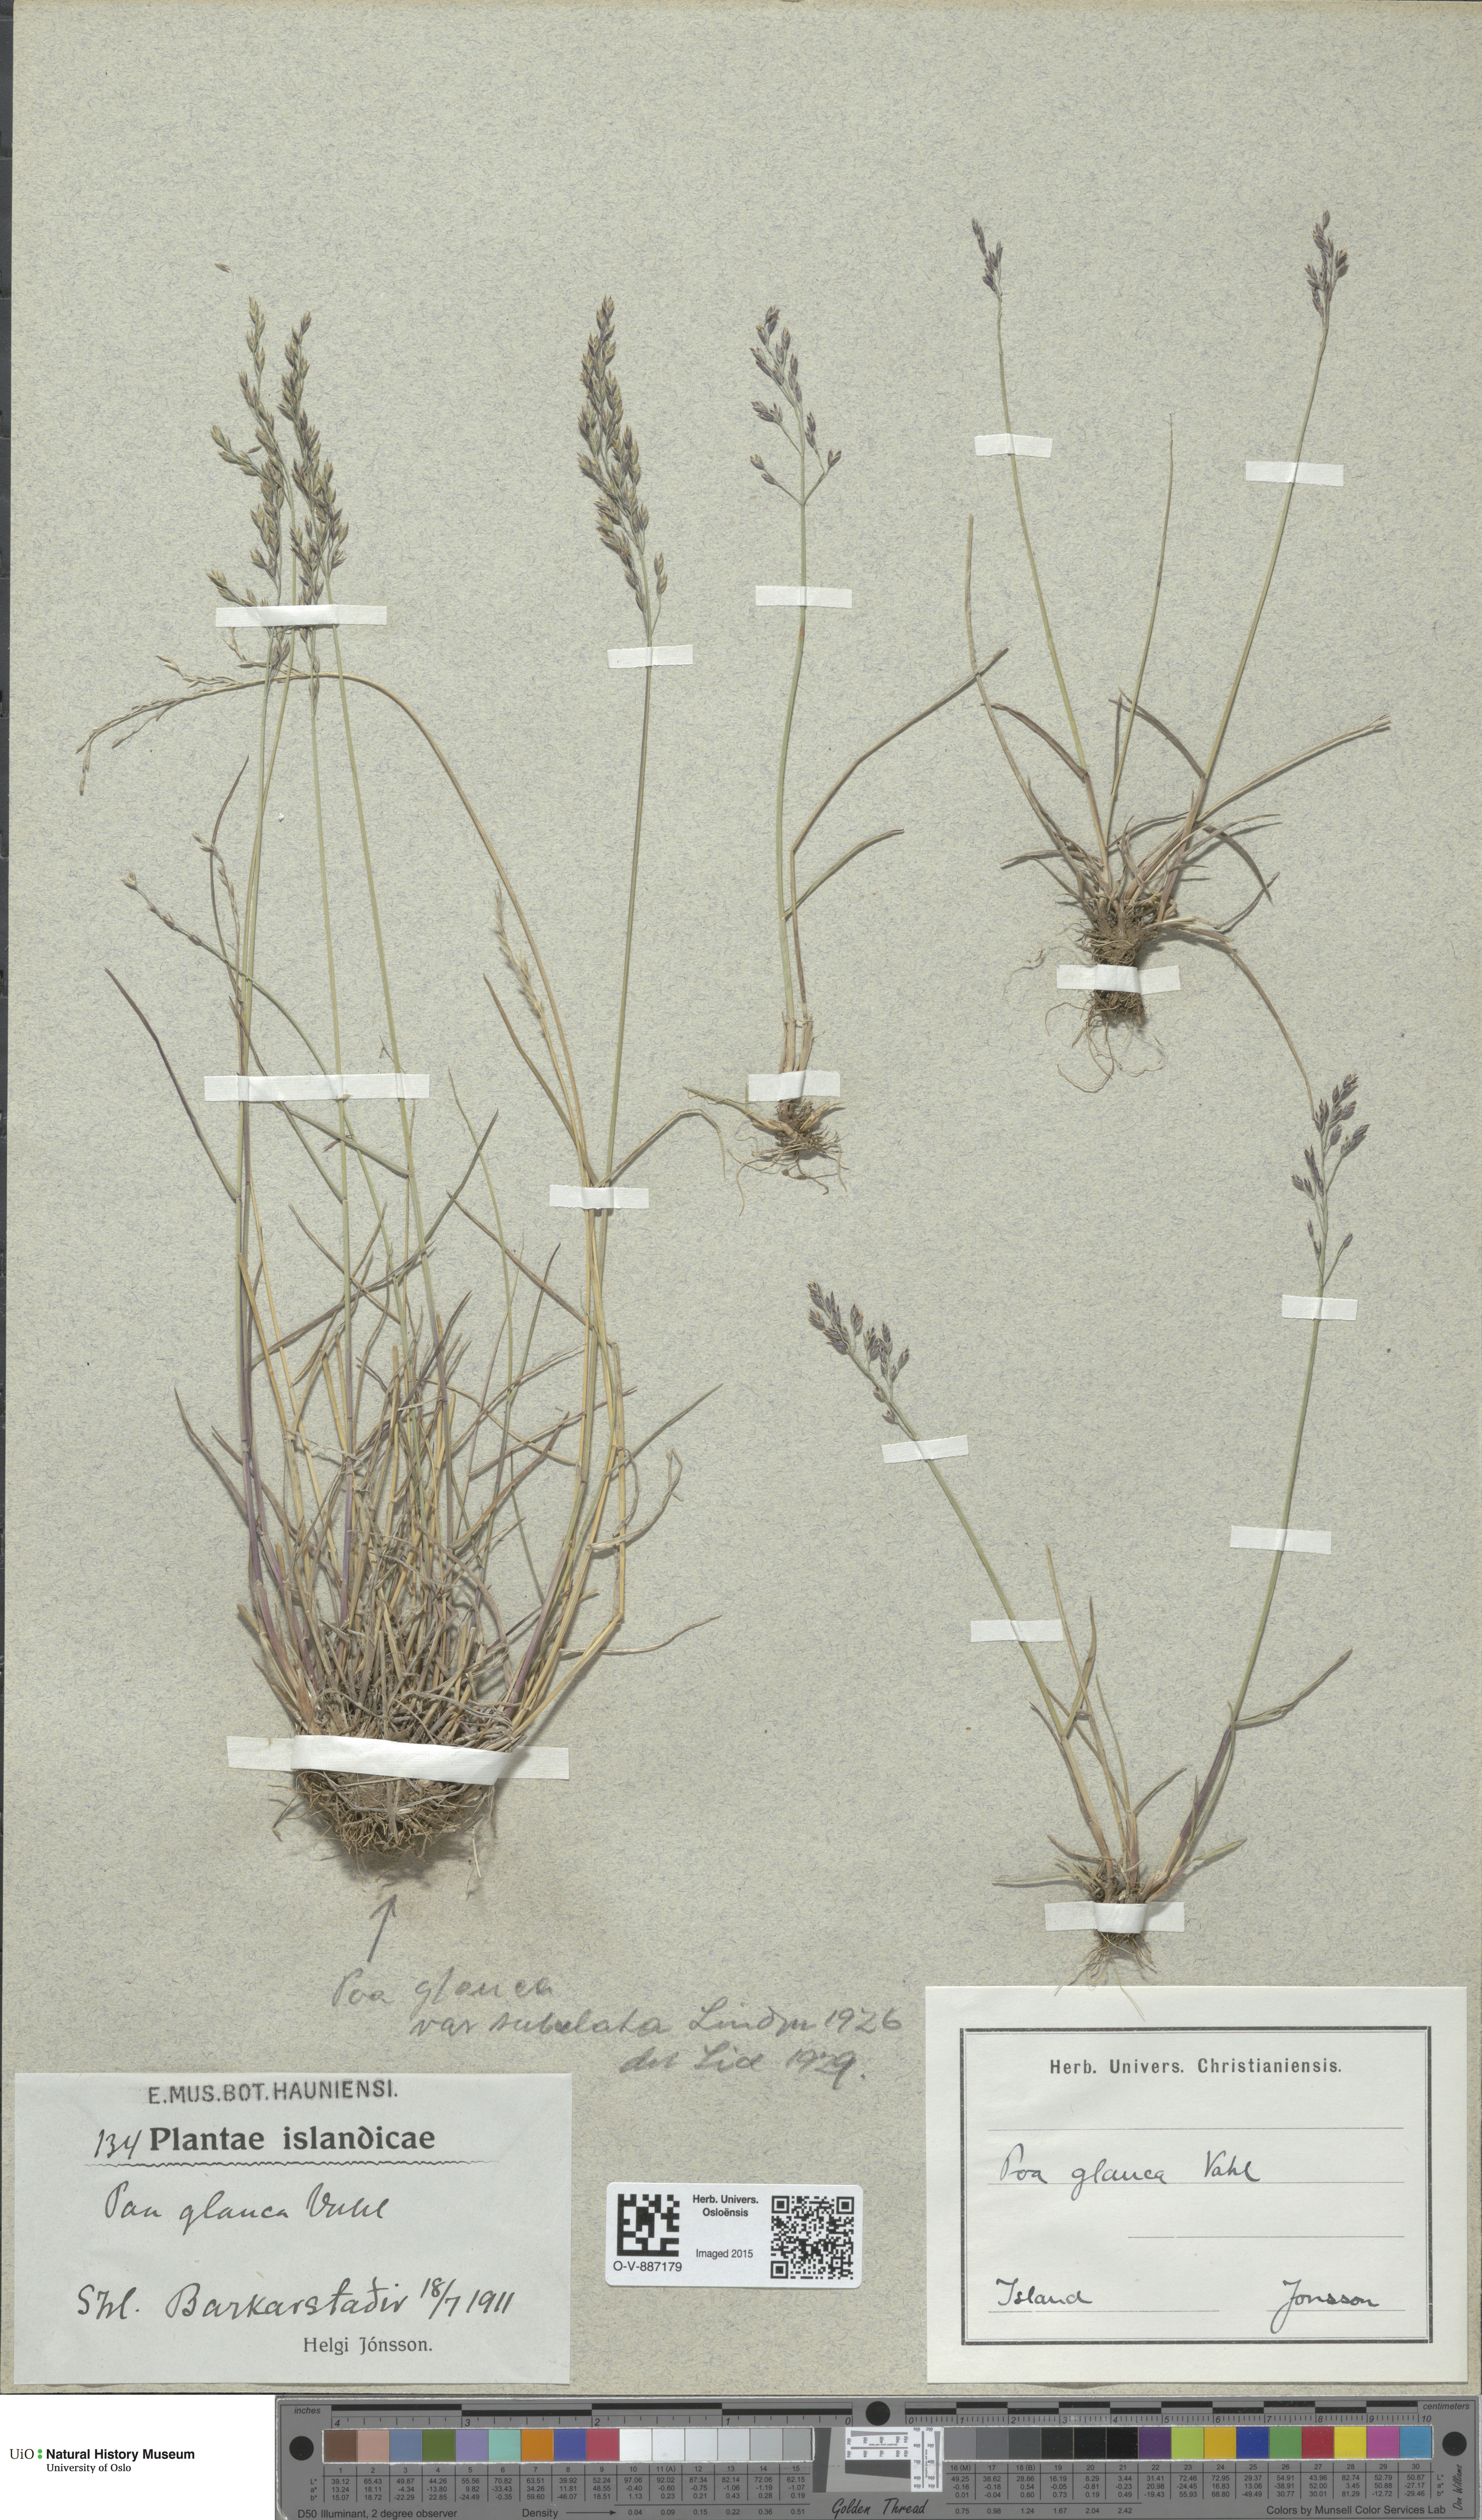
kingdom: Plantae
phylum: Tracheophyta
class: Liliopsida
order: Poales
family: Poaceae
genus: Poa
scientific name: Poa glauca
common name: Glaucous bluegrass
